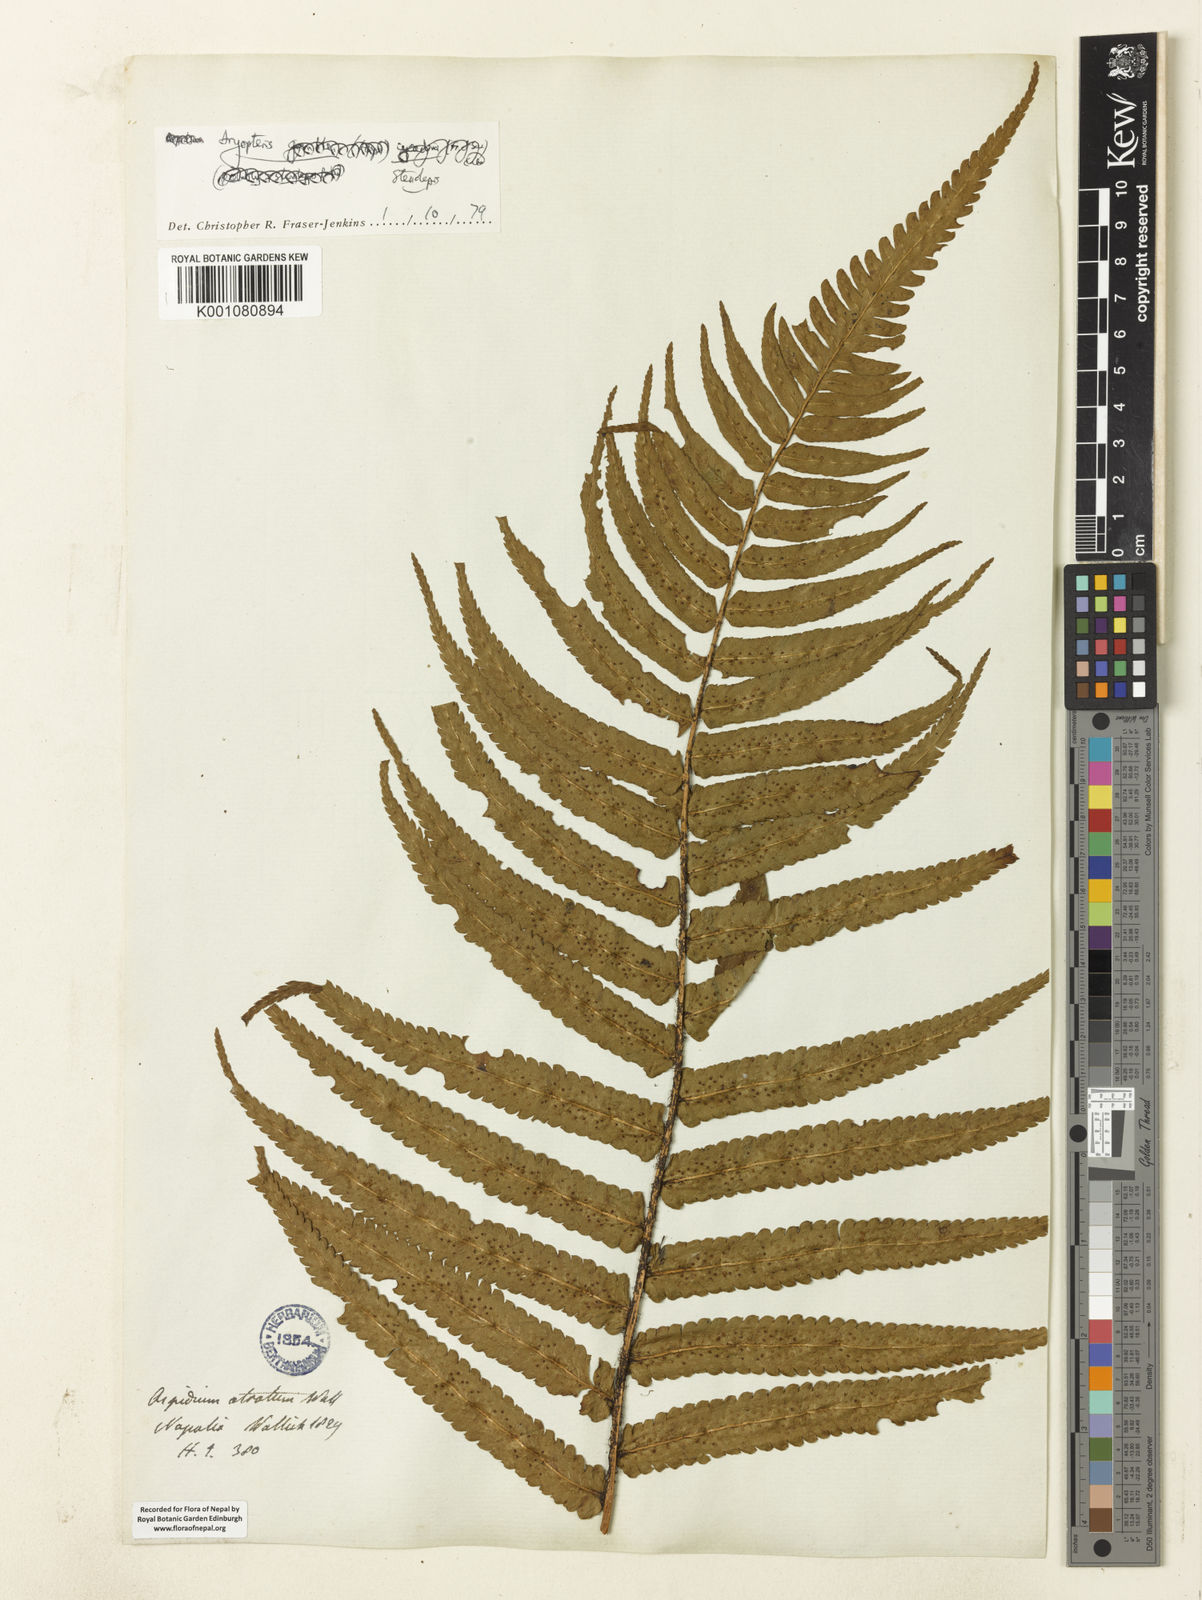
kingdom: Plantae
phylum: Tracheophyta
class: Polypodiopsida
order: Polypodiales
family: Dryopteridaceae
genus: Dryopteris
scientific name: Dryopteris stenolepis
